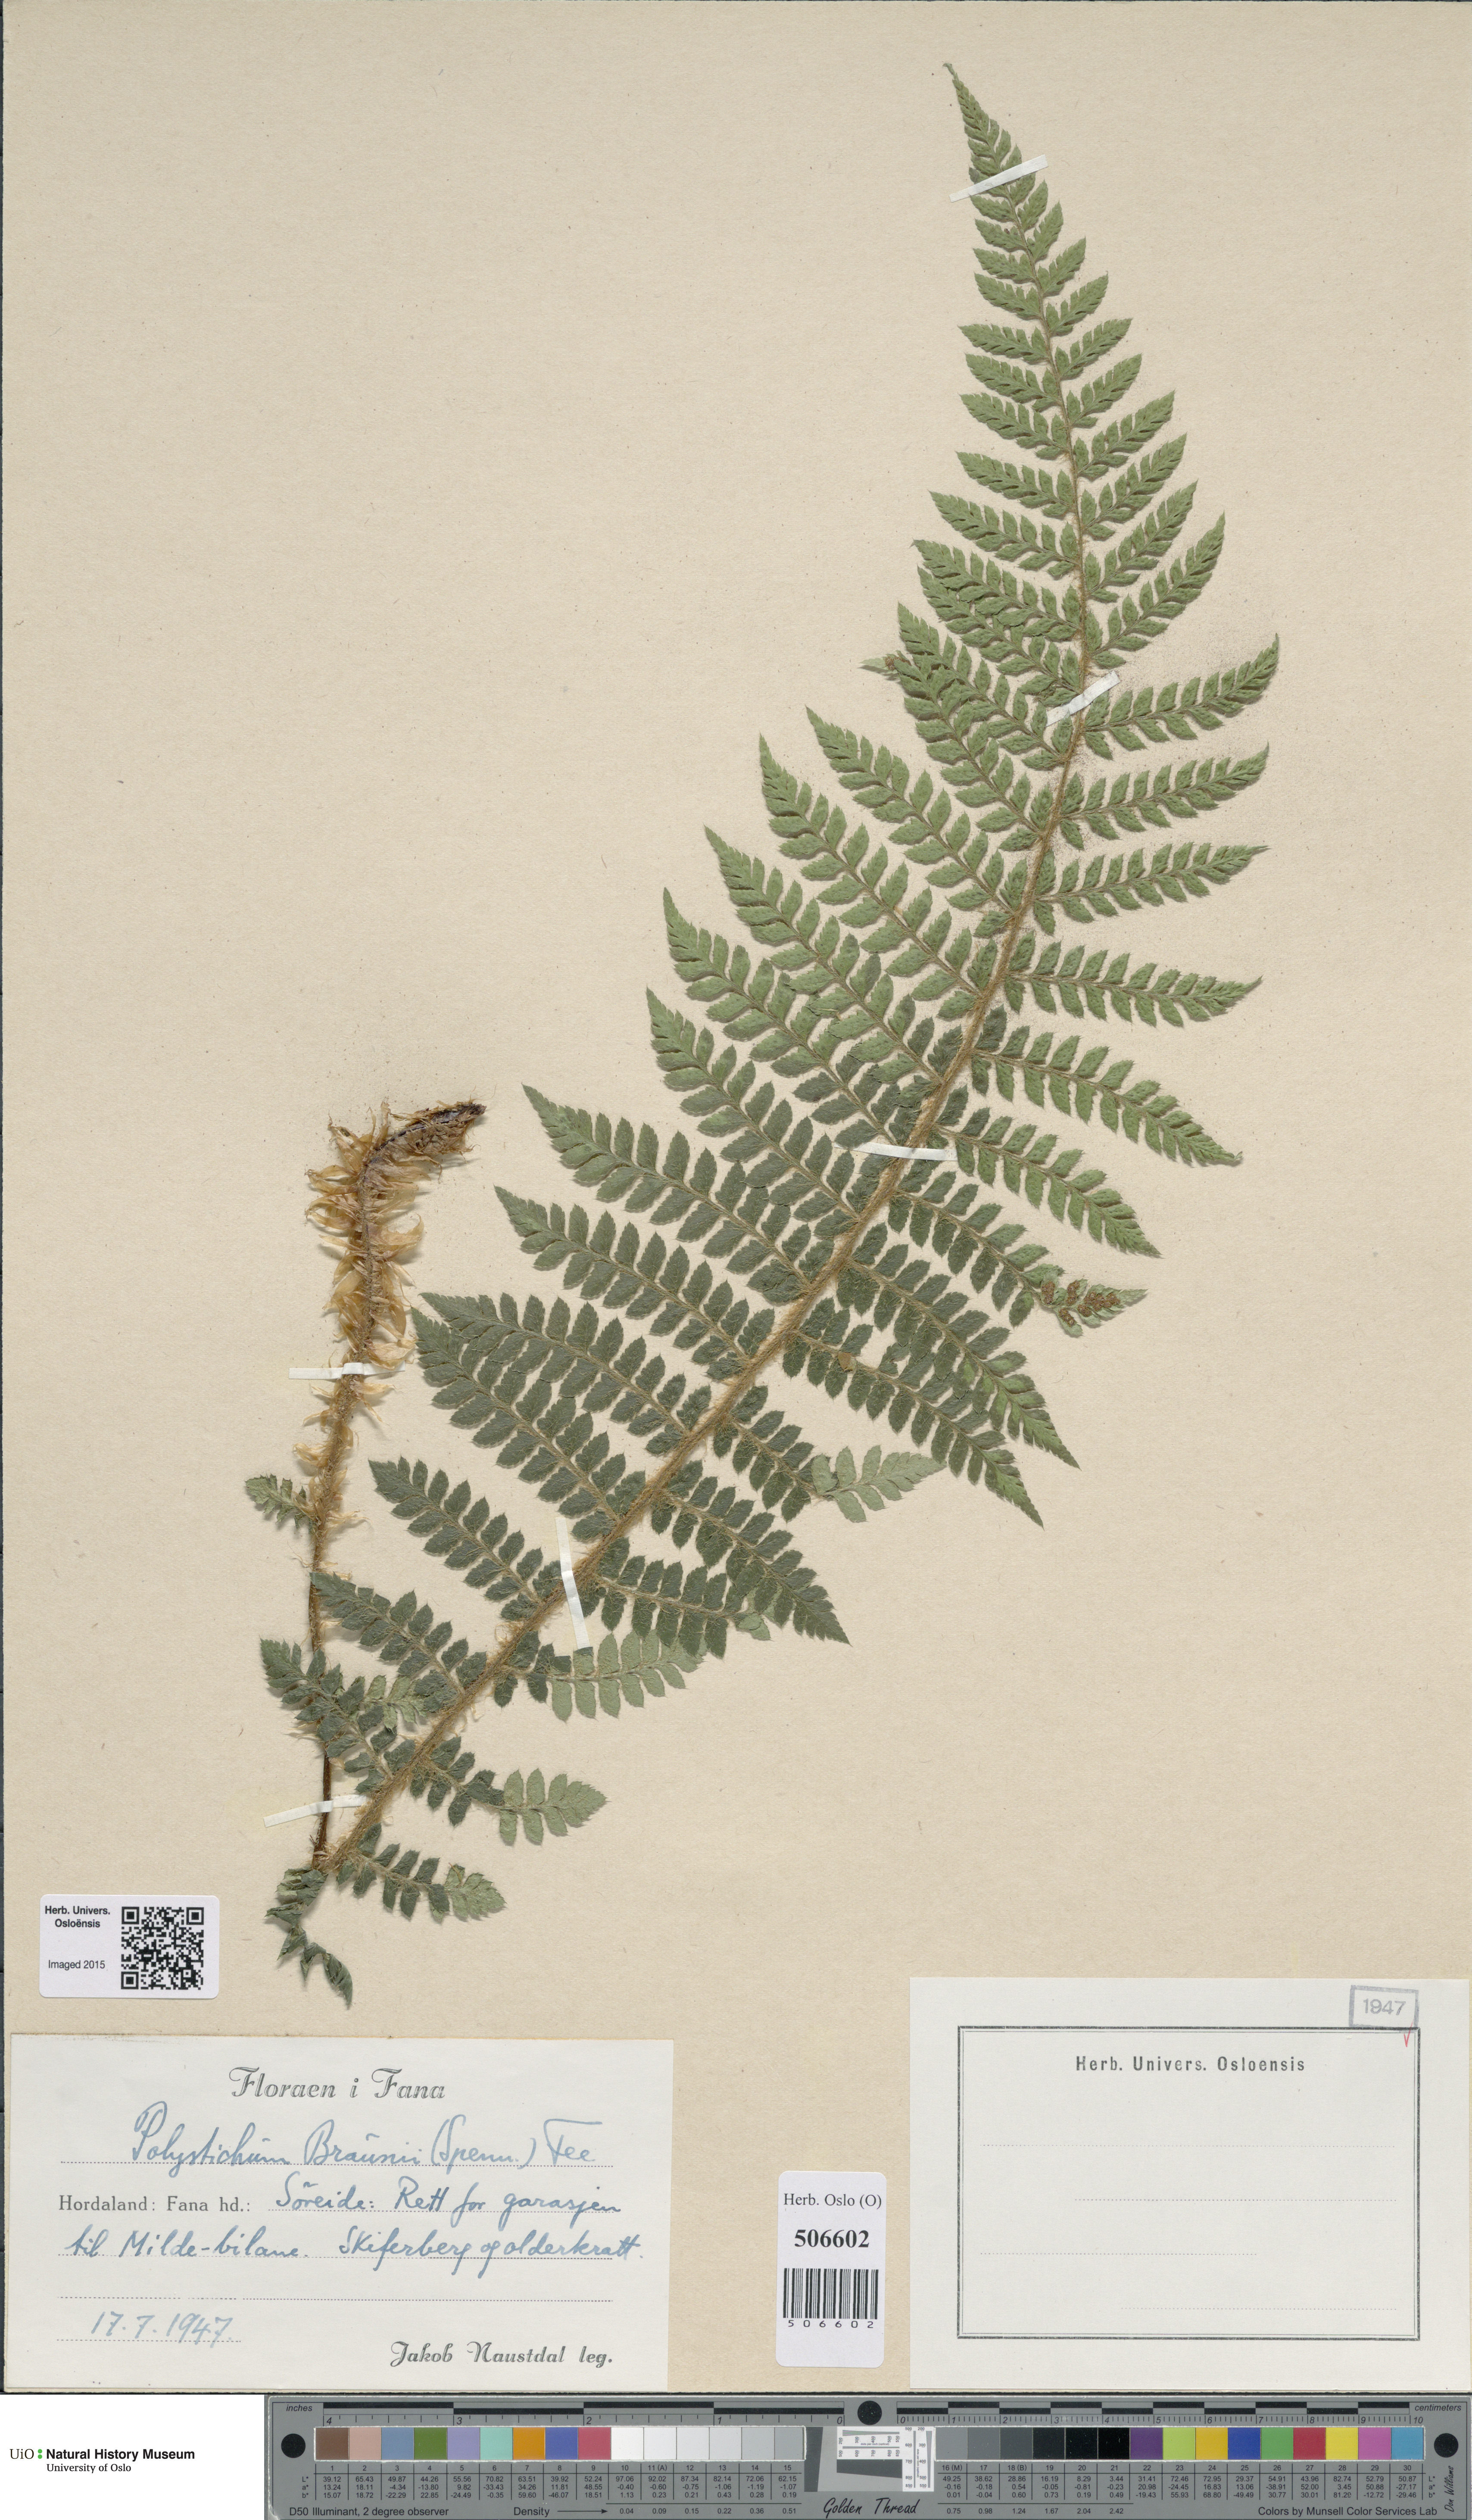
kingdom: Plantae
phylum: Tracheophyta
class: Polypodiopsida
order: Polypodiales
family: Dryopteridaceae
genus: Polystichum
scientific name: Polystichum braunii
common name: Braun's holly fern
